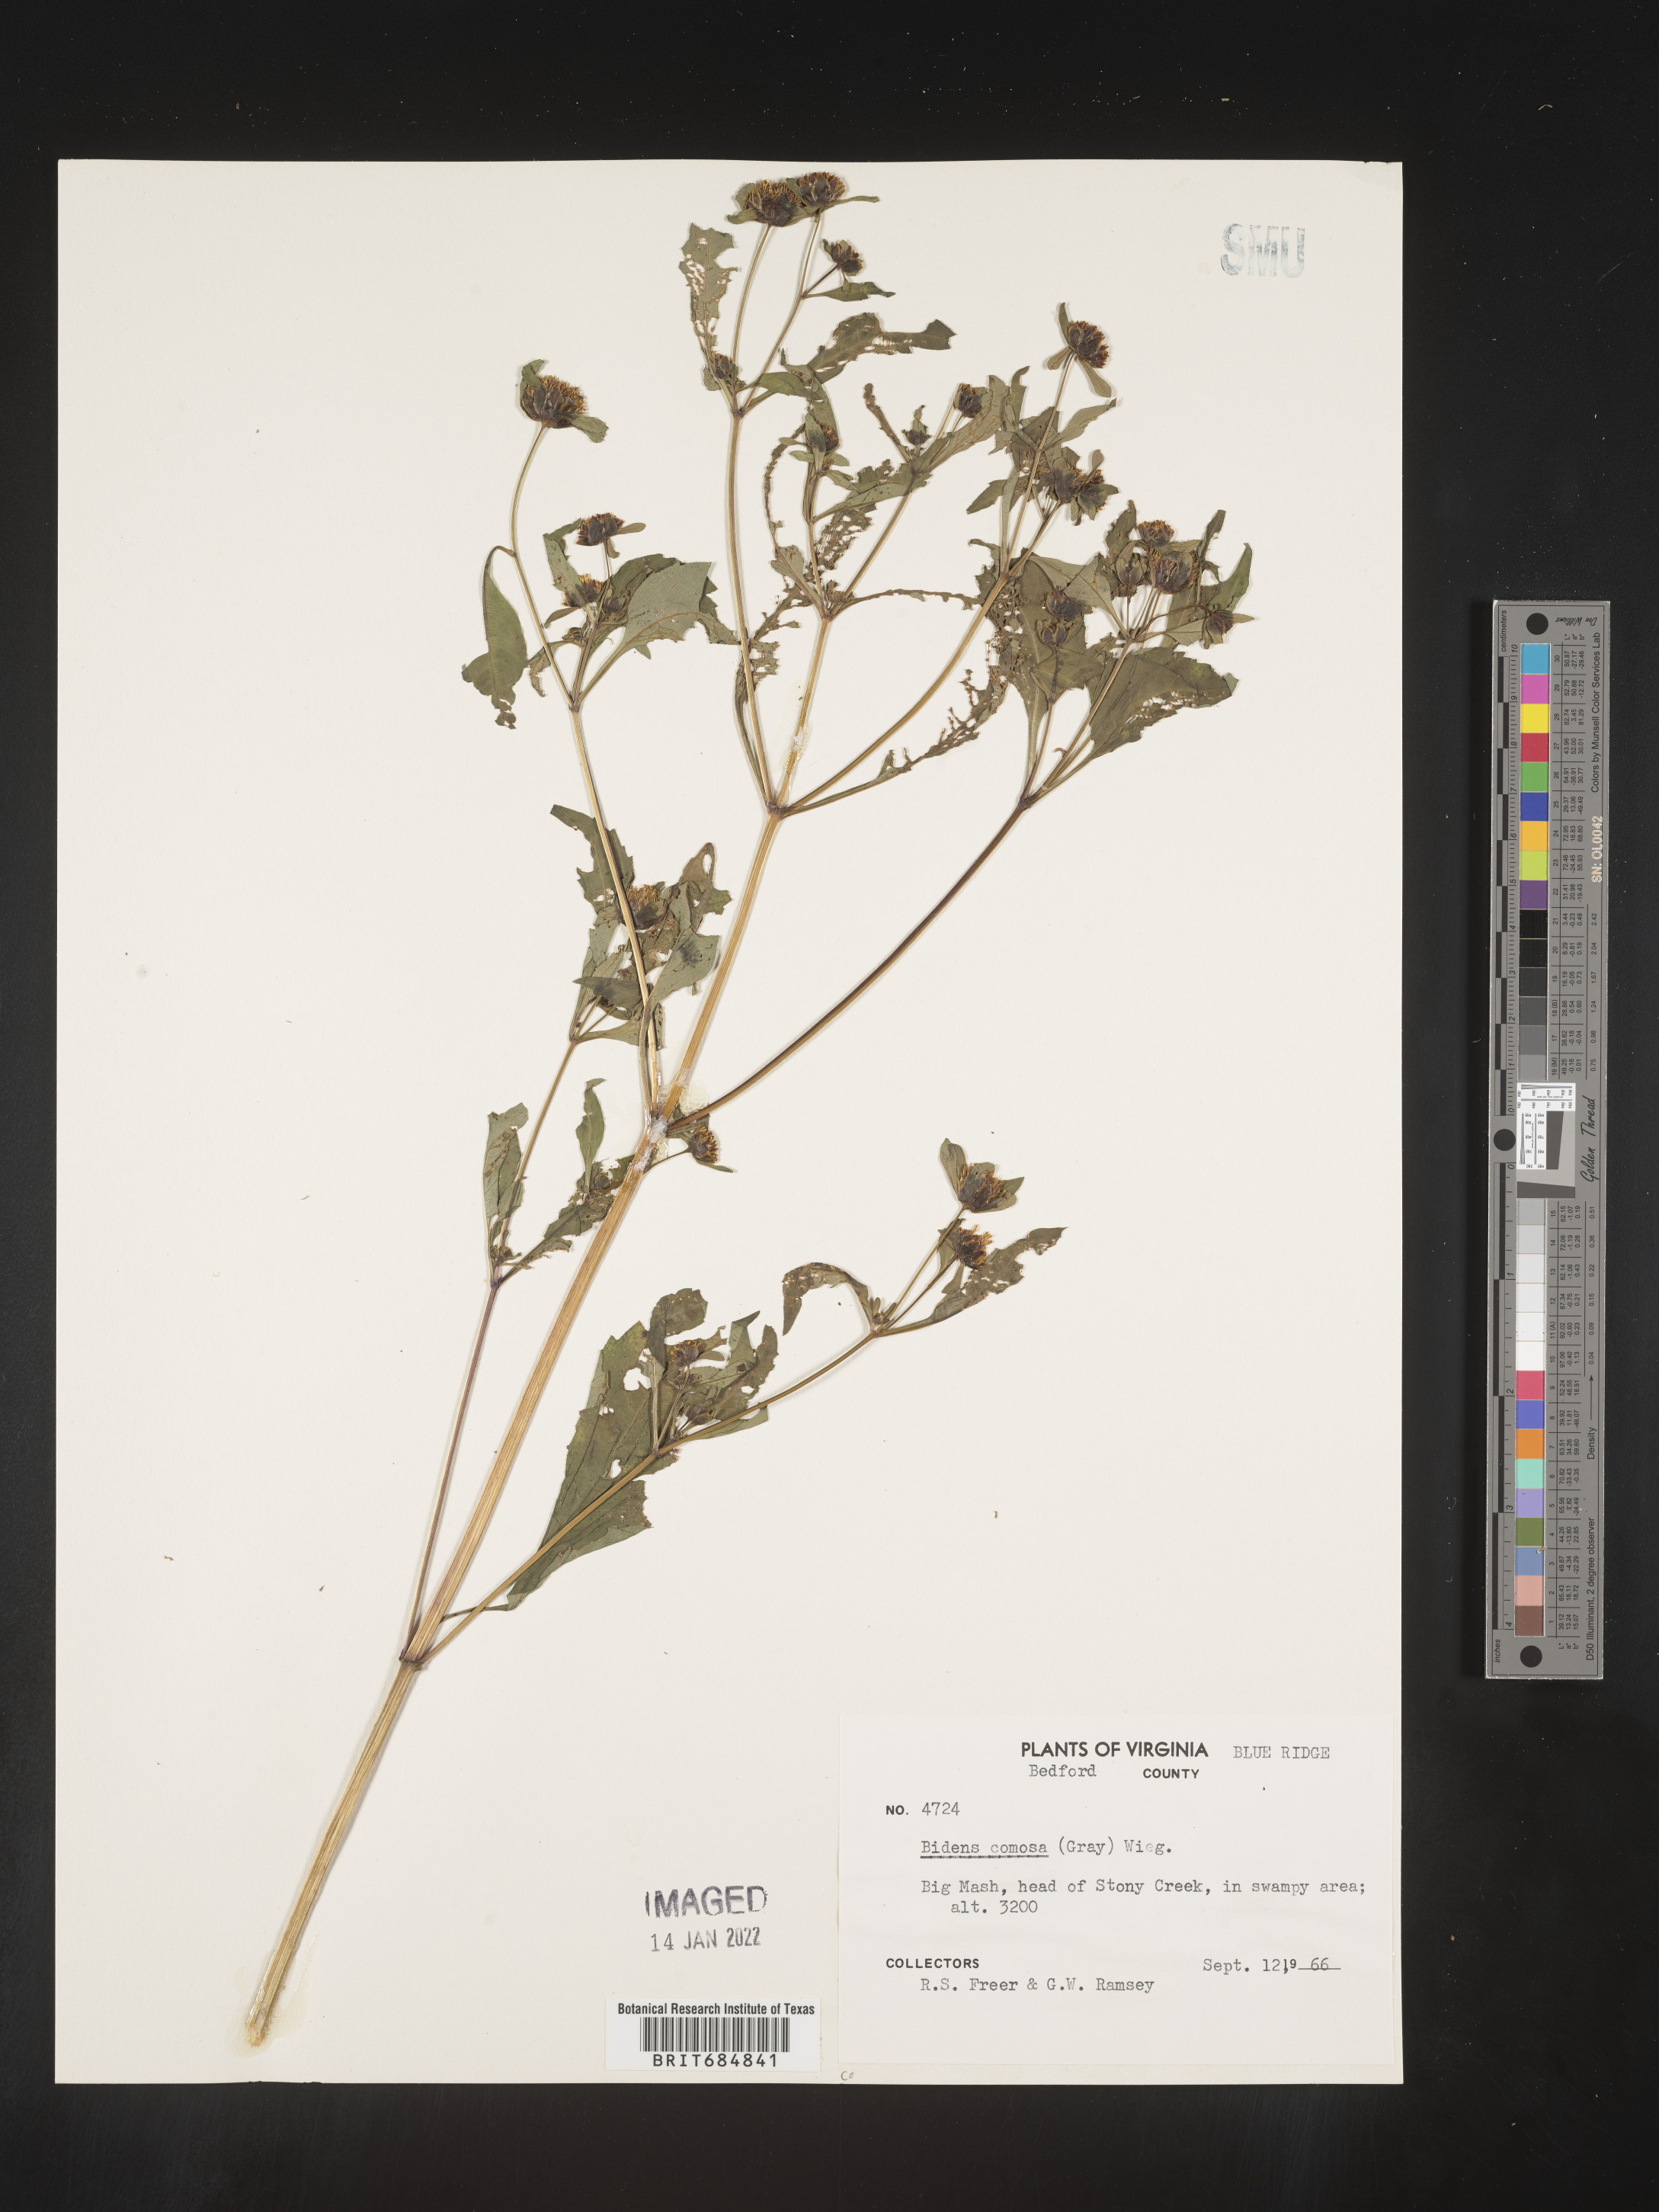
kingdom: Plantae
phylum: Tracheophyta
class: Magnoliopsida
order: Asterales
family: Asteraceae
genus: Bidens
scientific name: Bidens tripartita
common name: Trifid bur-marigold
